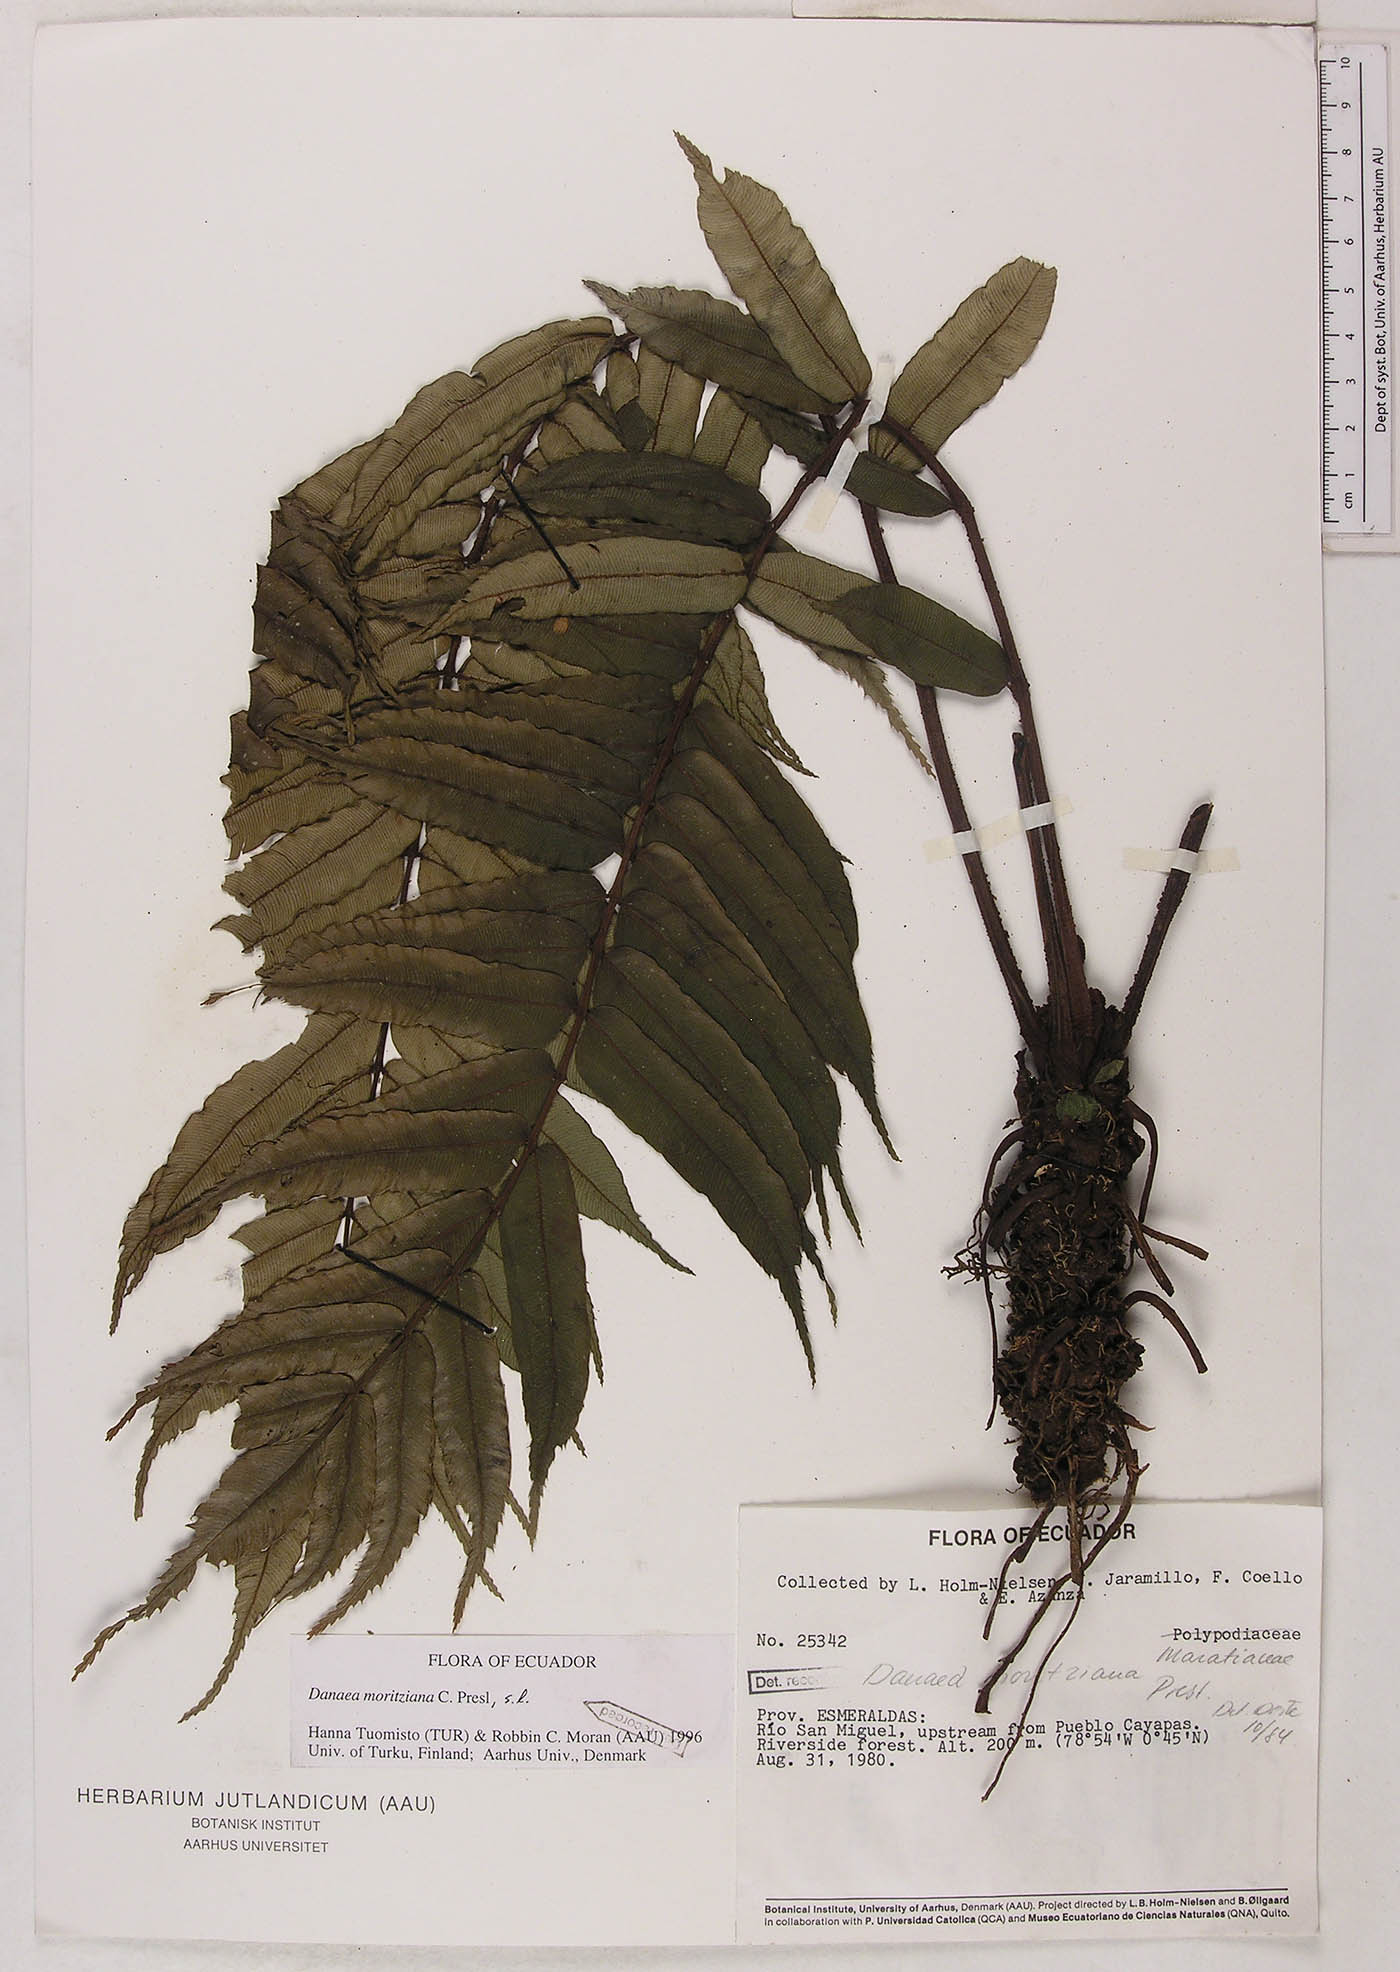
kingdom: Plantae
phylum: Tracheophyta
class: Polypodiopsida
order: Marattiales
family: Marattiaceae
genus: Danaea
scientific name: Danaea moritziana
